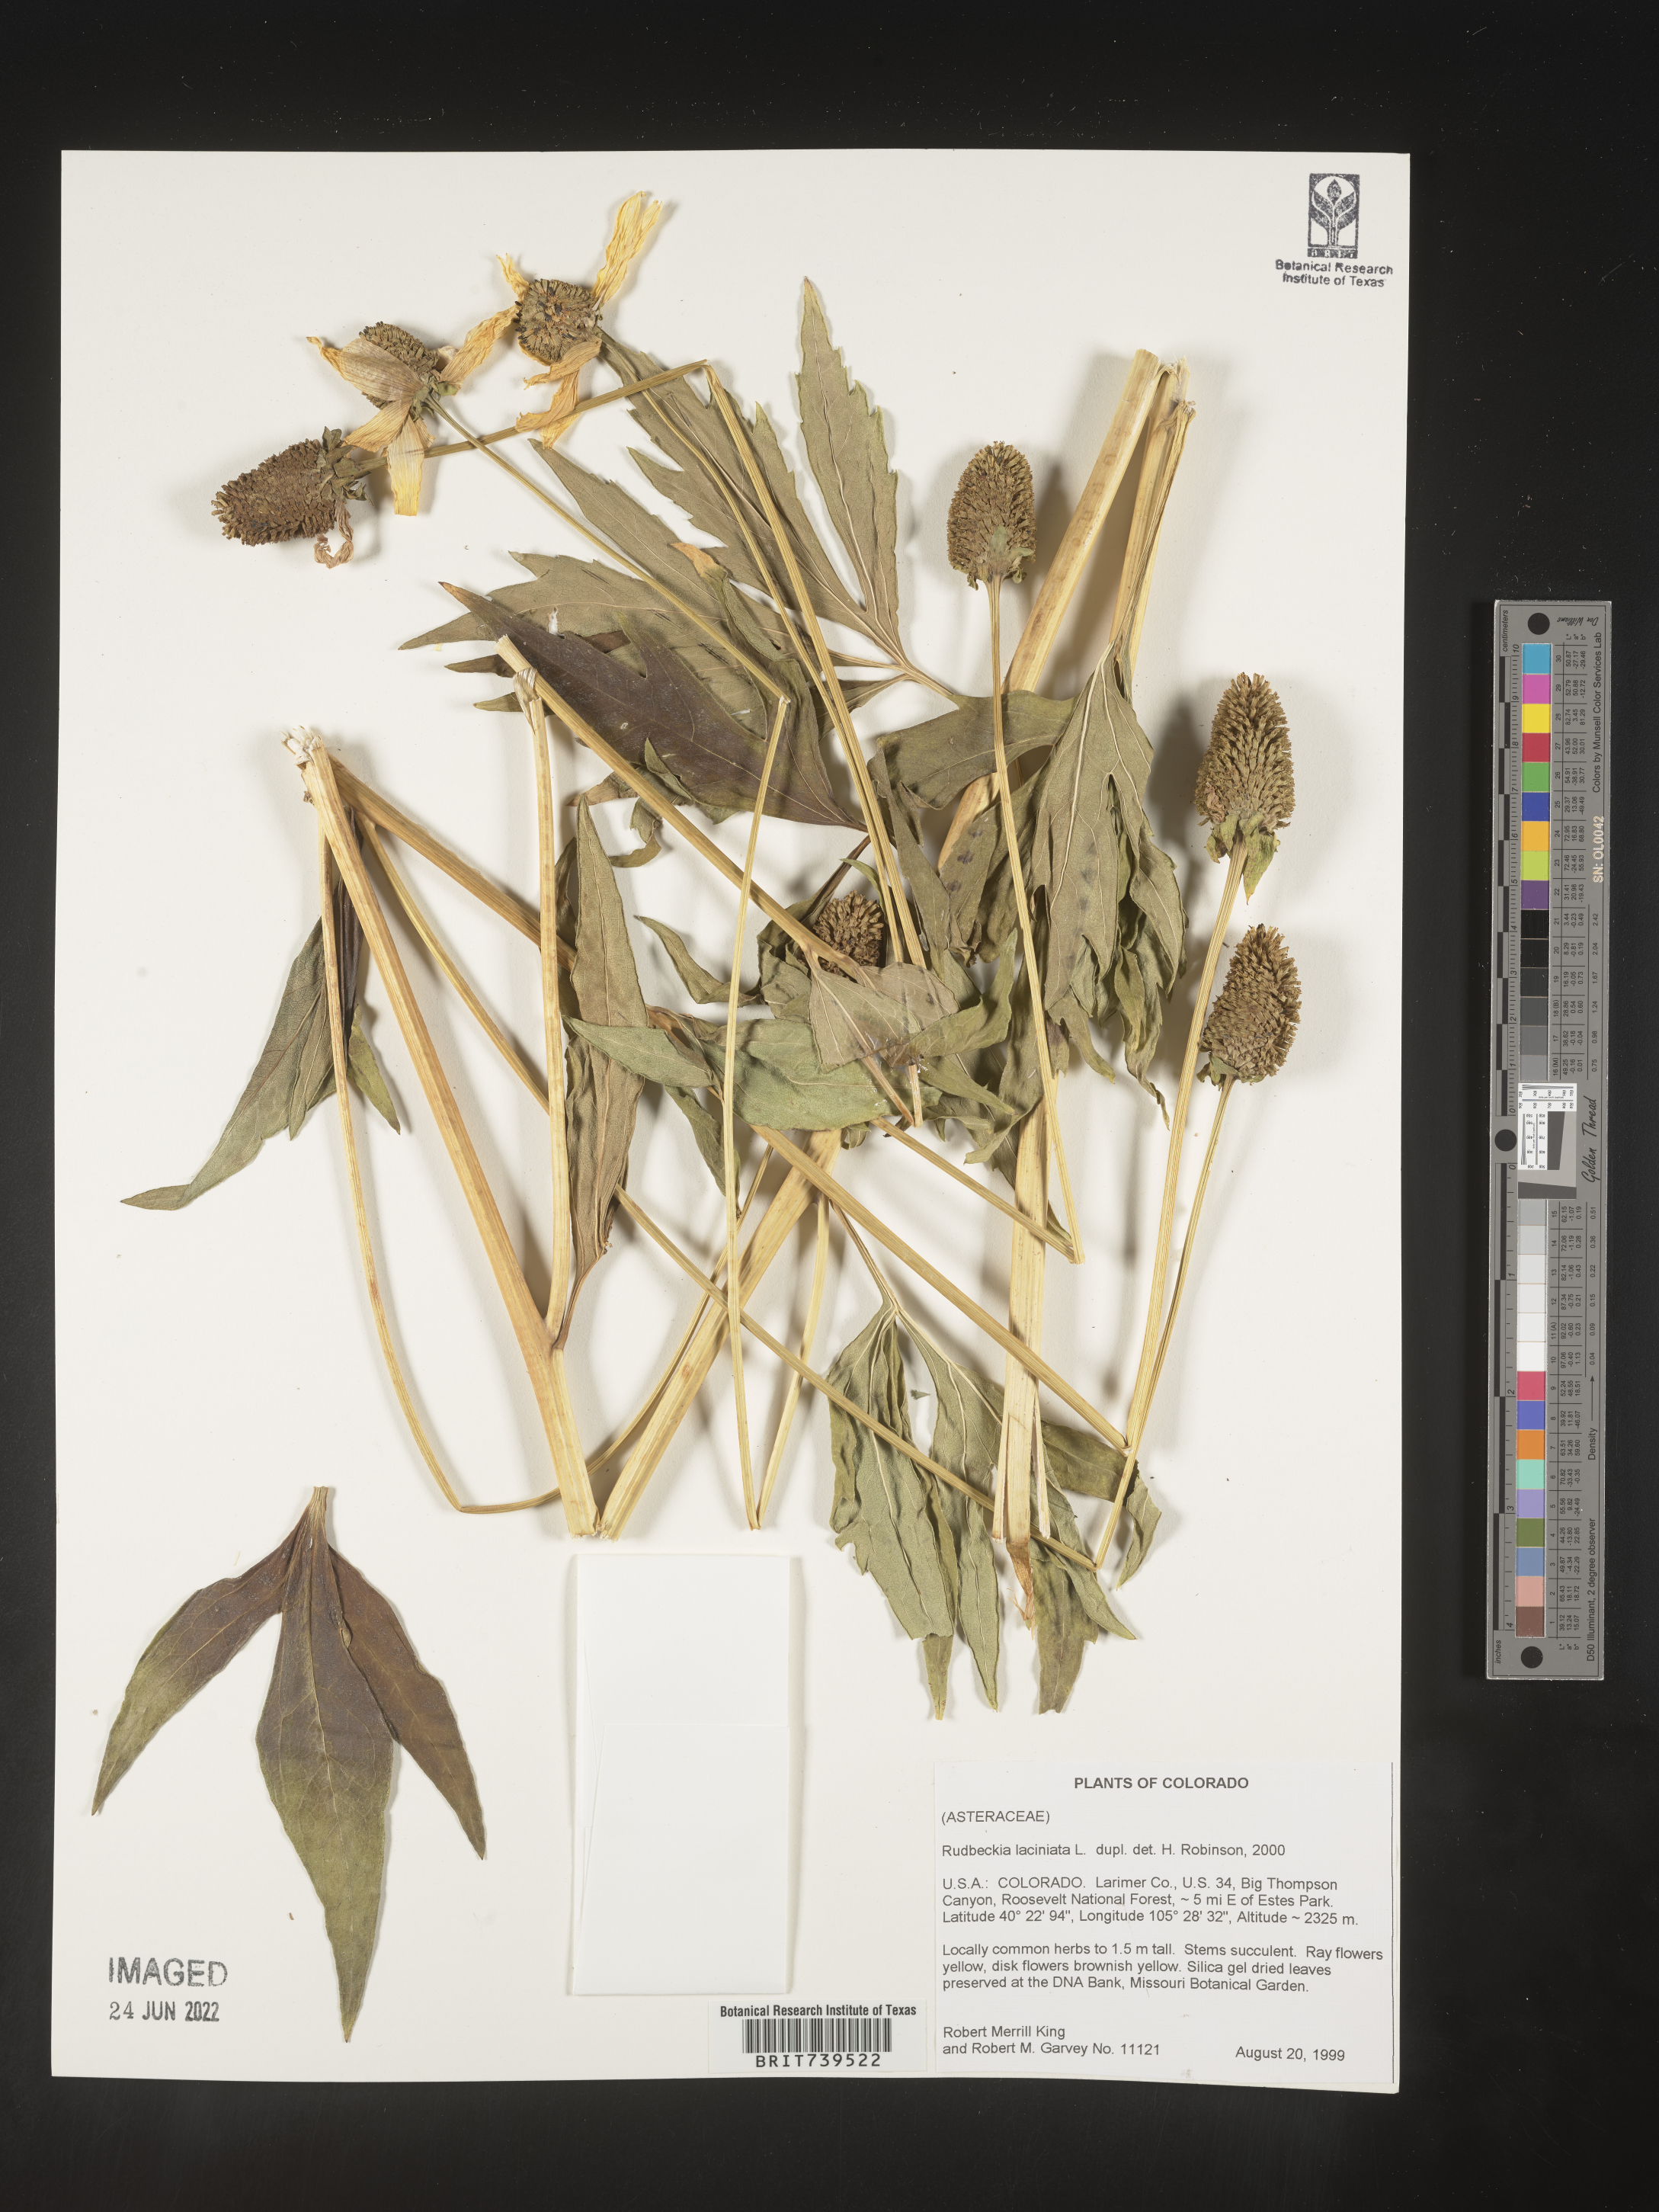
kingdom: Plantae
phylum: Tracheophyta
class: Magnoliopsida
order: Asterales
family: Asteraceae
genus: Rudbeckia
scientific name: Rudbeckia laciniata
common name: Coneflower
